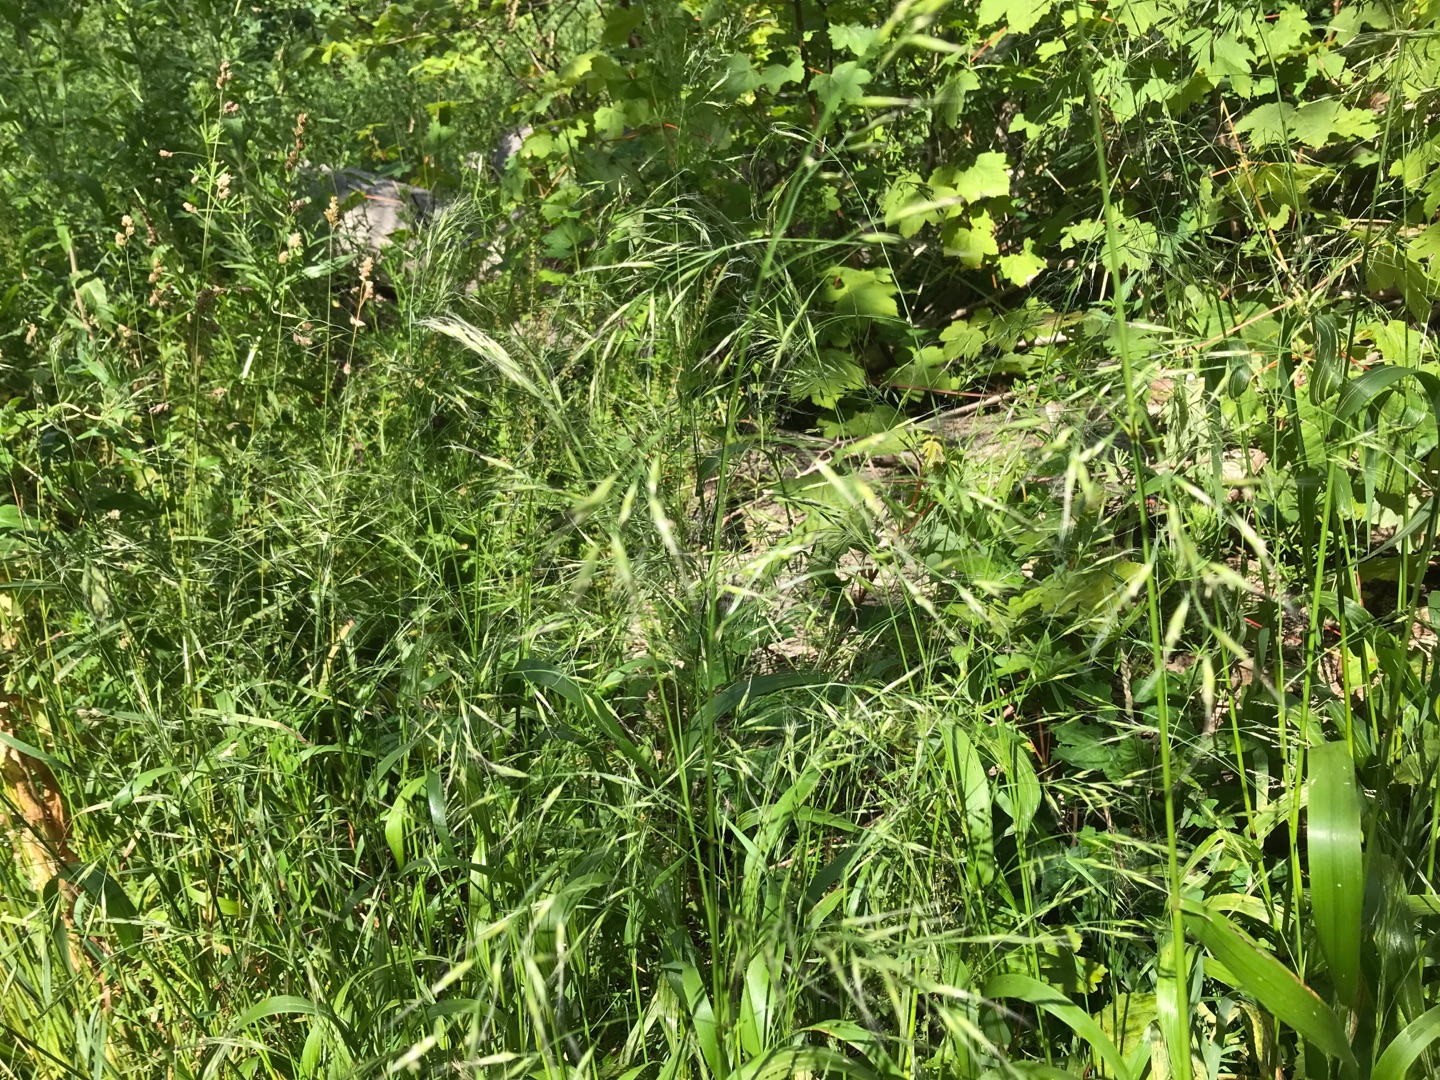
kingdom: Plantae
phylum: Tracheophyta
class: Liliopsida
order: Poales
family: Poaceae
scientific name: Poaceae
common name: Græsfamilien
